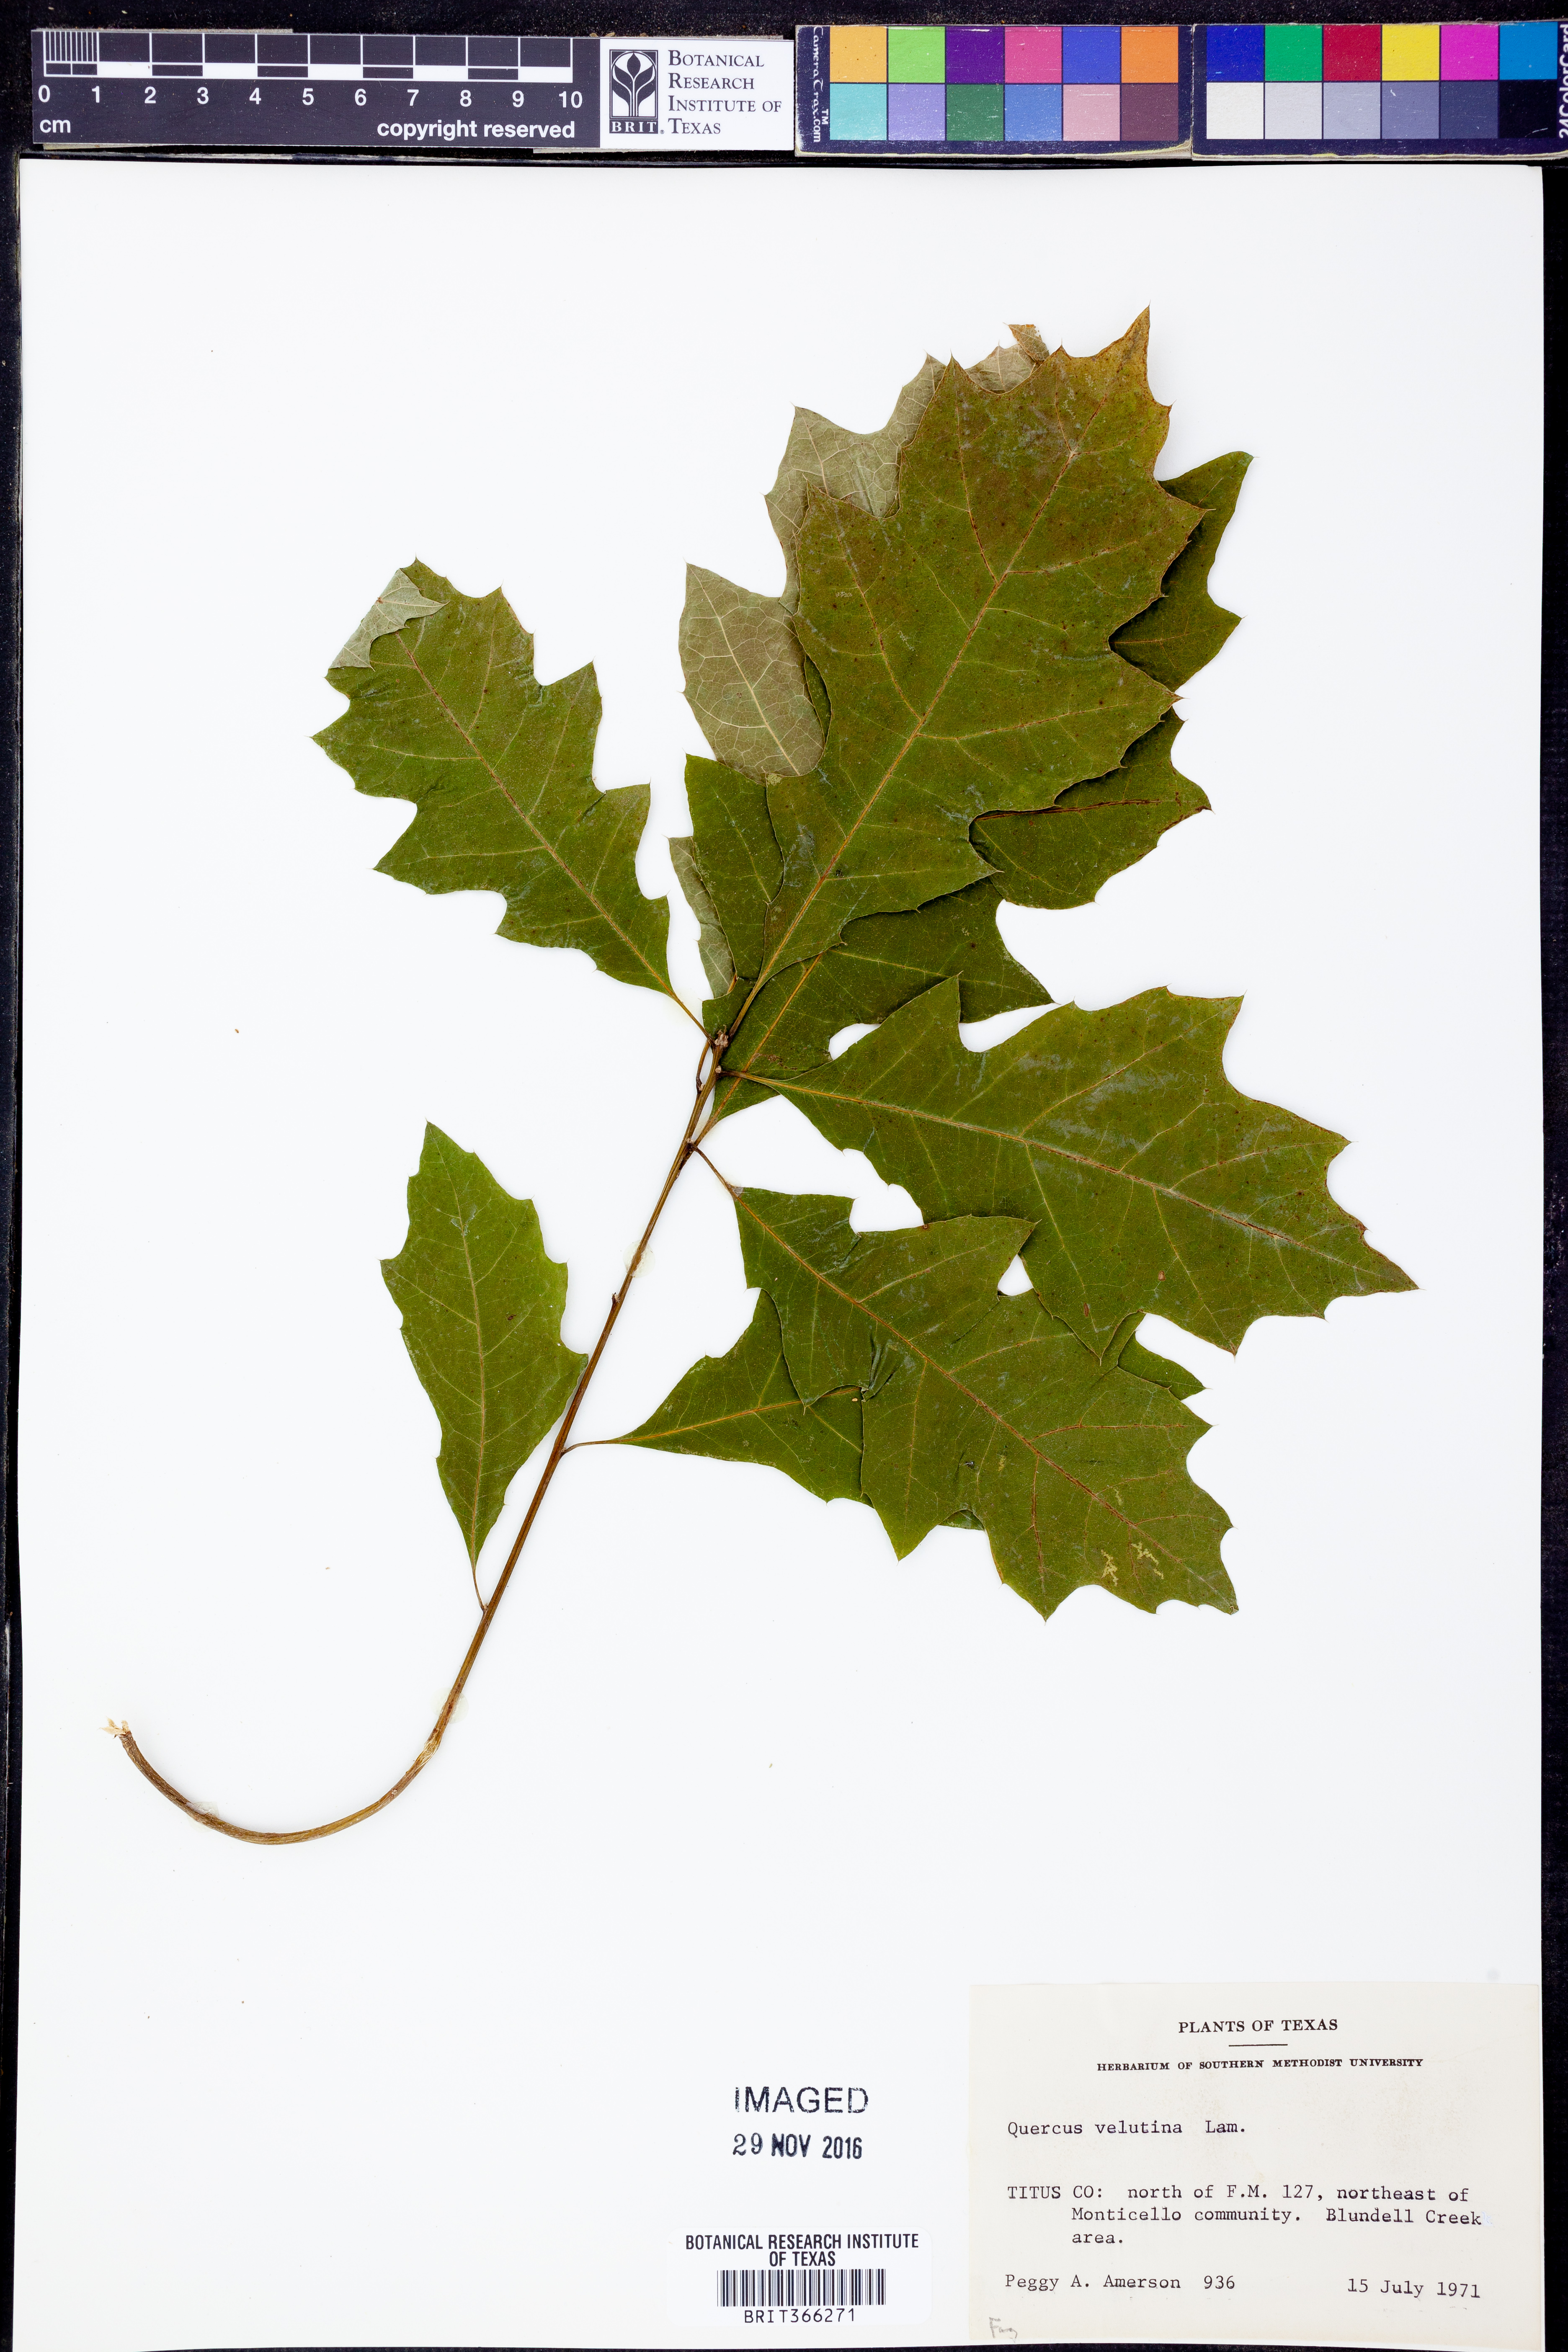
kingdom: Plantae
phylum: Tracheophyta
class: Magnoliopsida
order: Fagales
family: Fagaceae
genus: Quercus
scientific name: Quercus velutina
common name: Black oak
